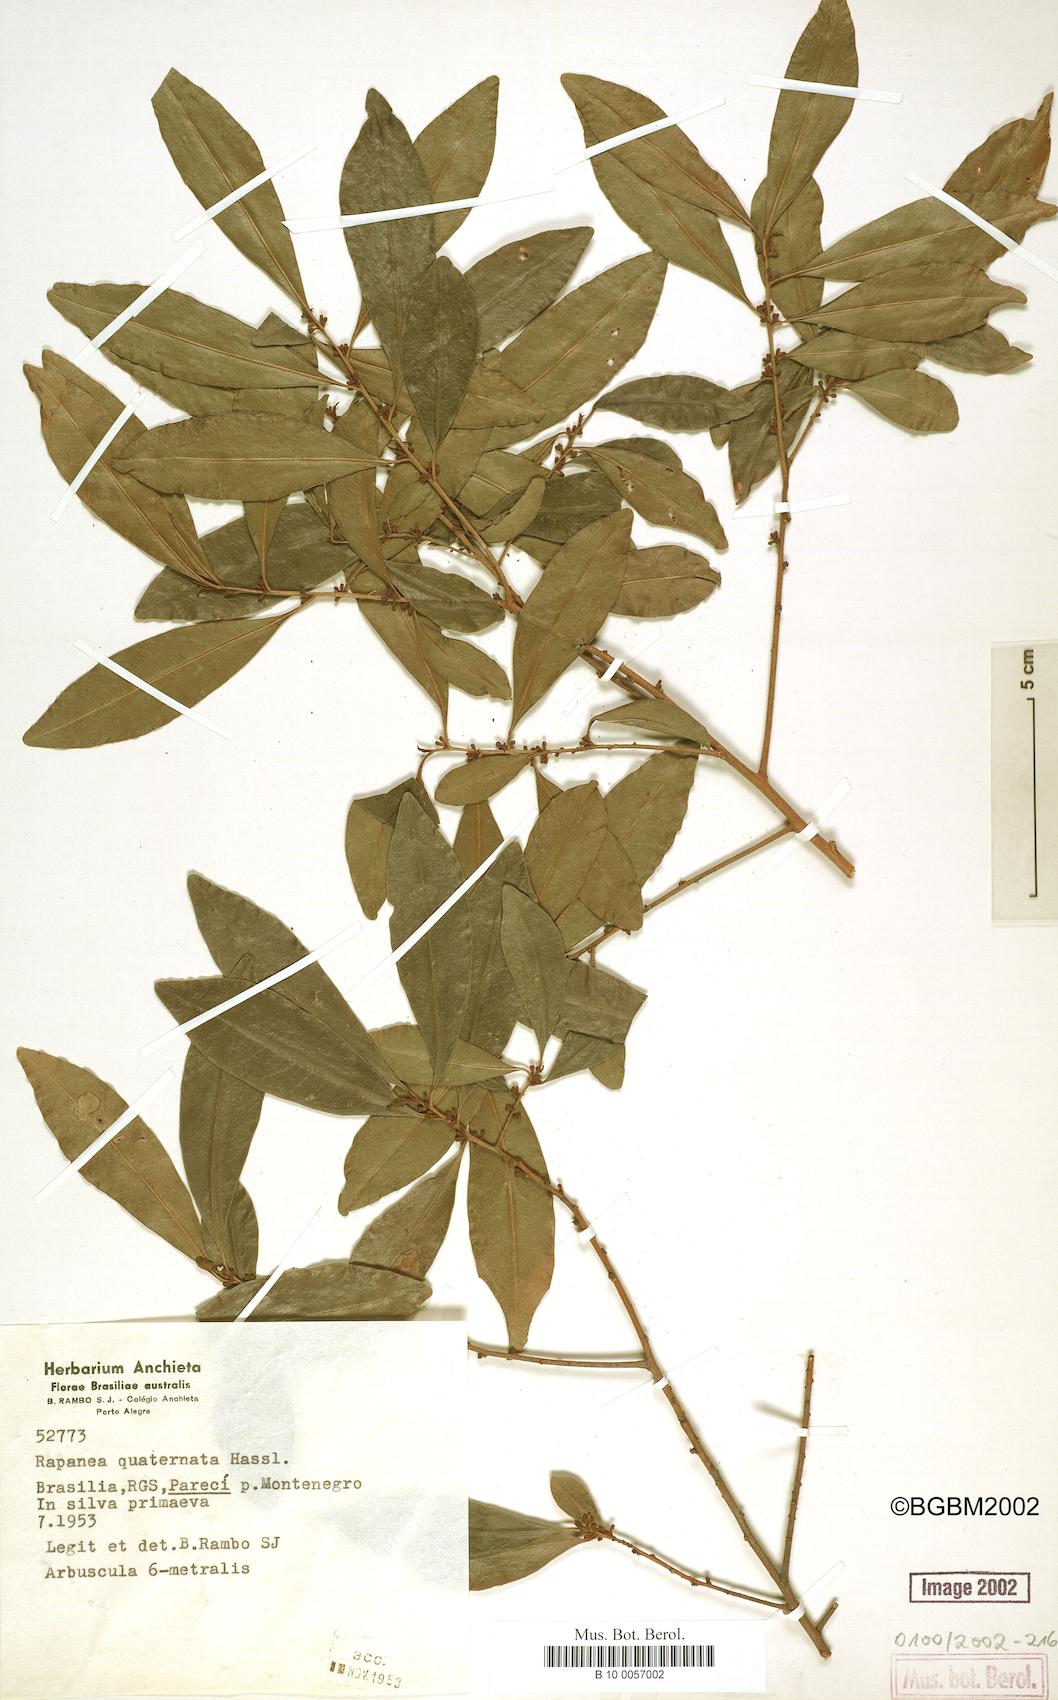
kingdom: Plantae
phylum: Tracheophyta
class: Magnoliopsida
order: Ericales
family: Primulaceae
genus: Myrsine
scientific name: Myrsine loefgrenii
